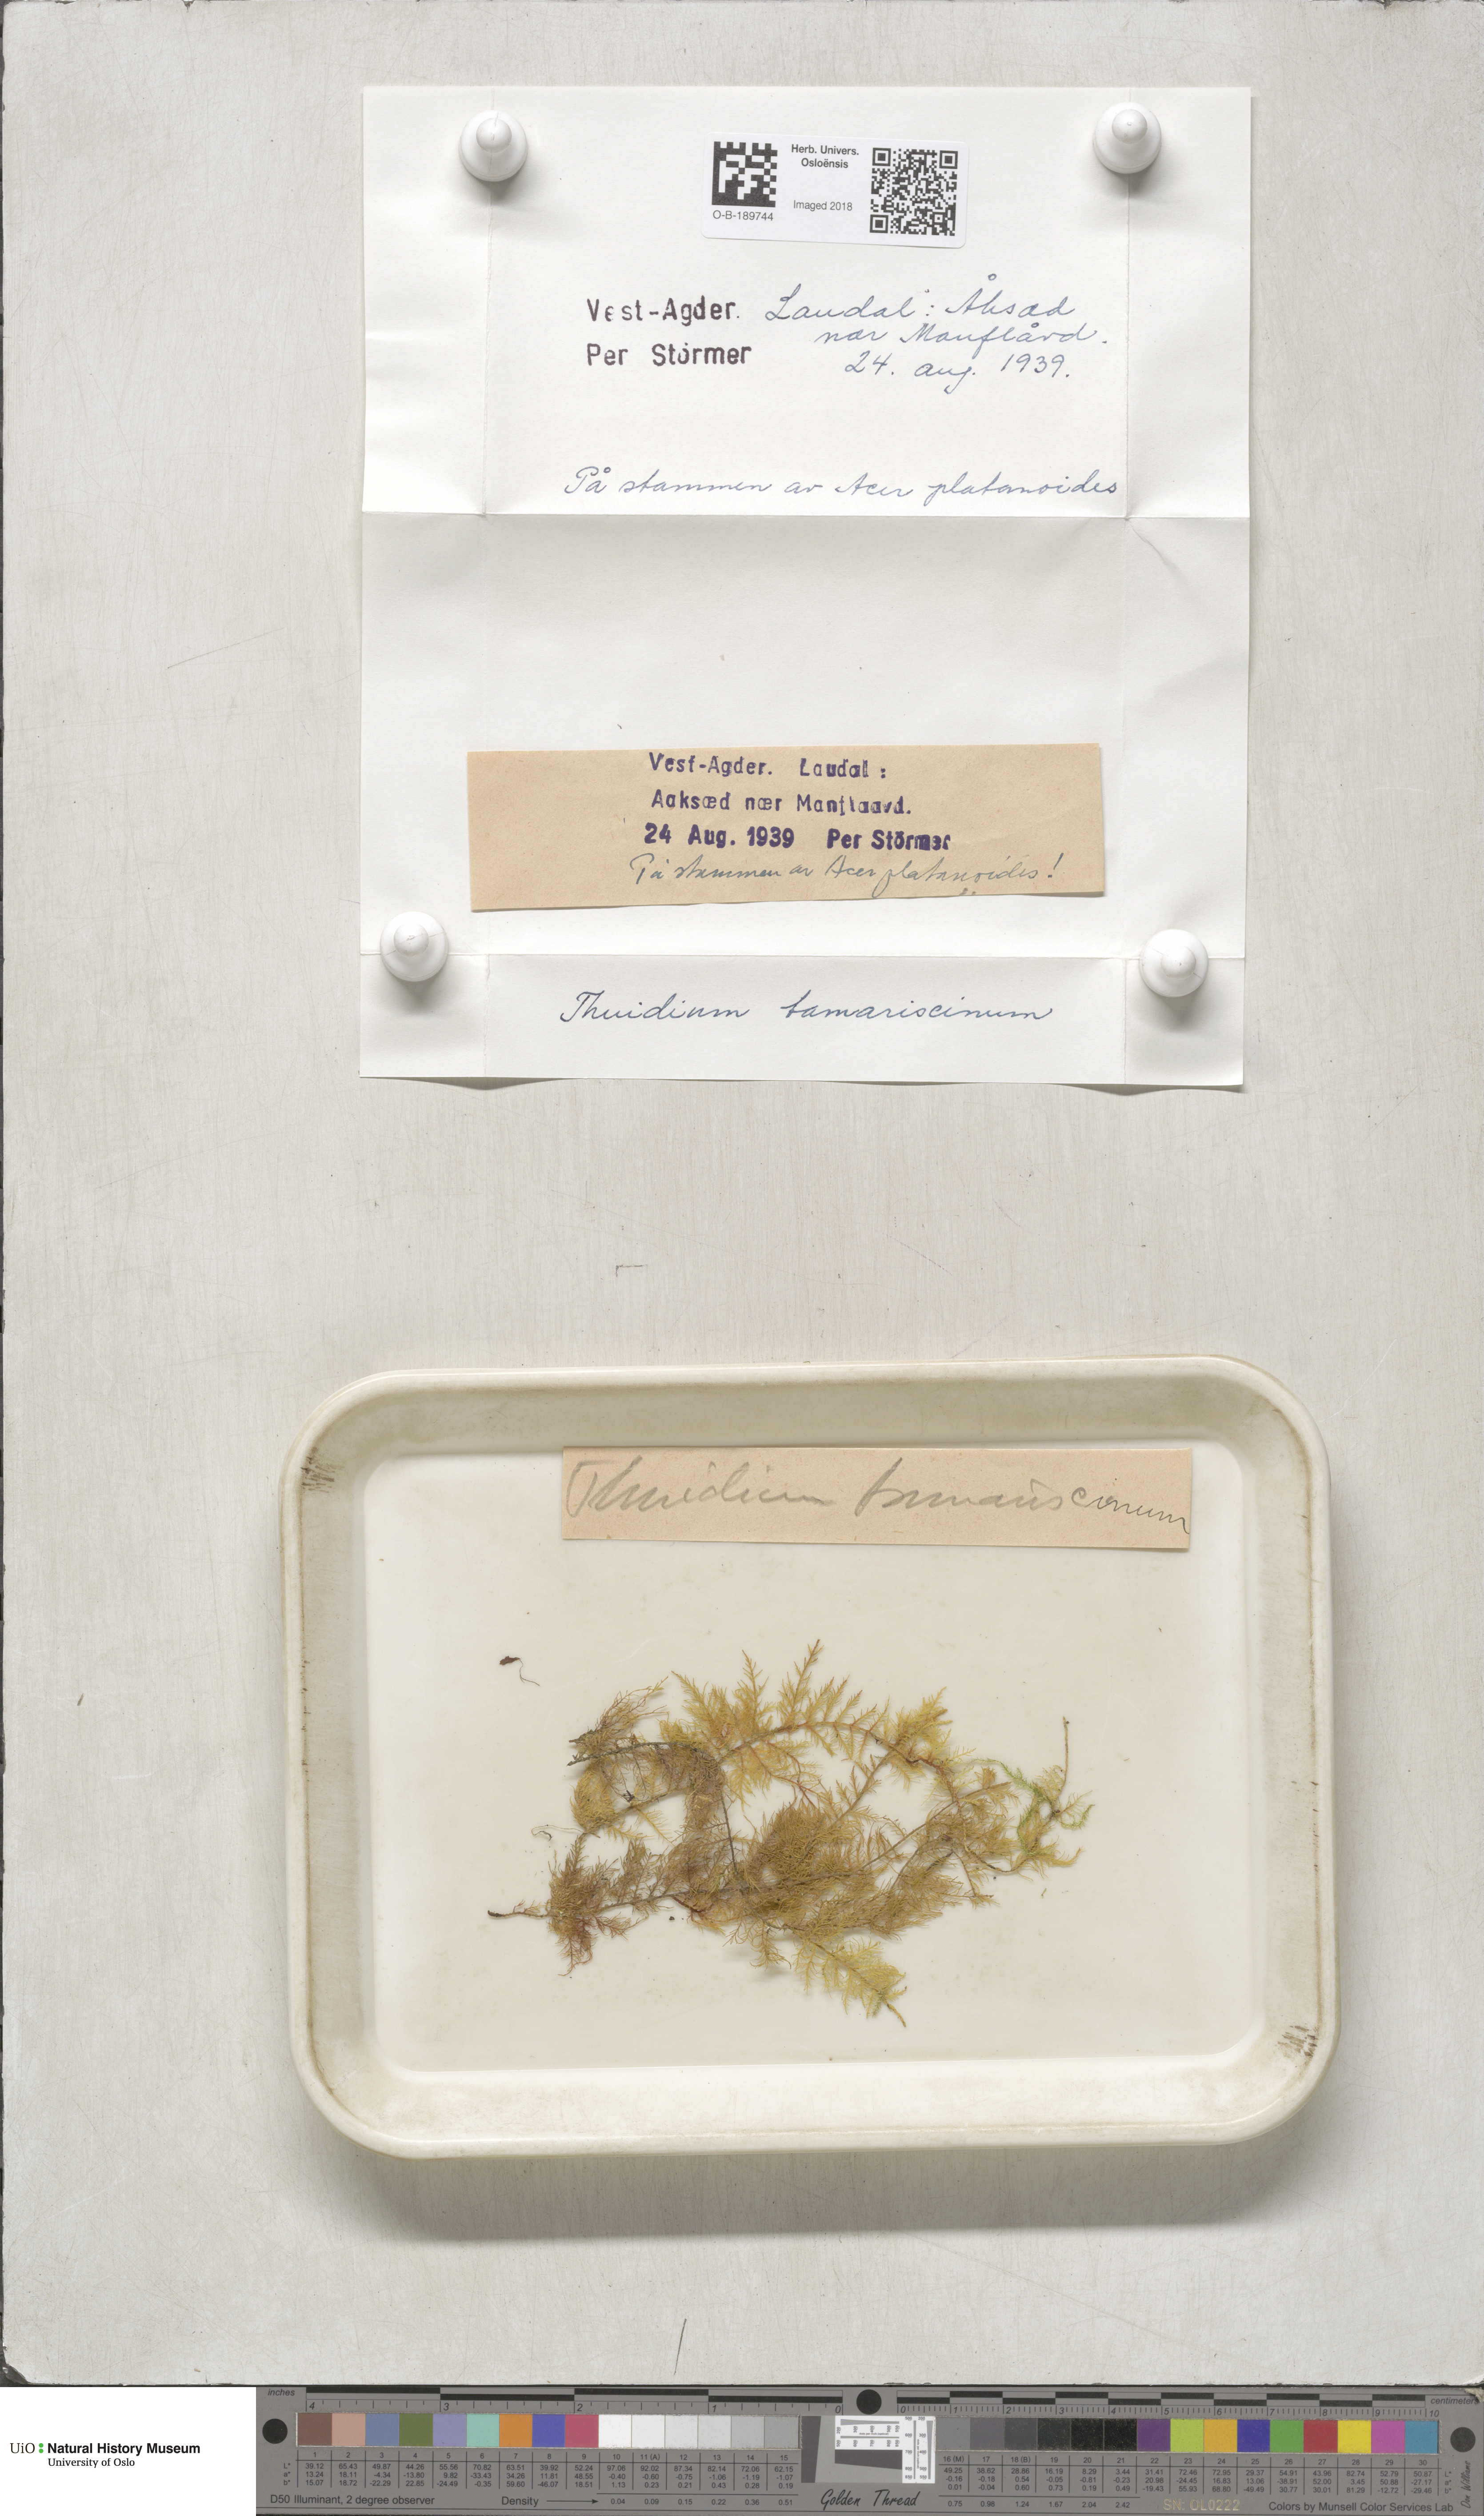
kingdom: Plantae
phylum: Bryophyta
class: Bryopsida
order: Hypnales
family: Thuidiaceae
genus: Thuidium
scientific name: Thuidium tamariscinum
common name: Common tamarisk-moss
